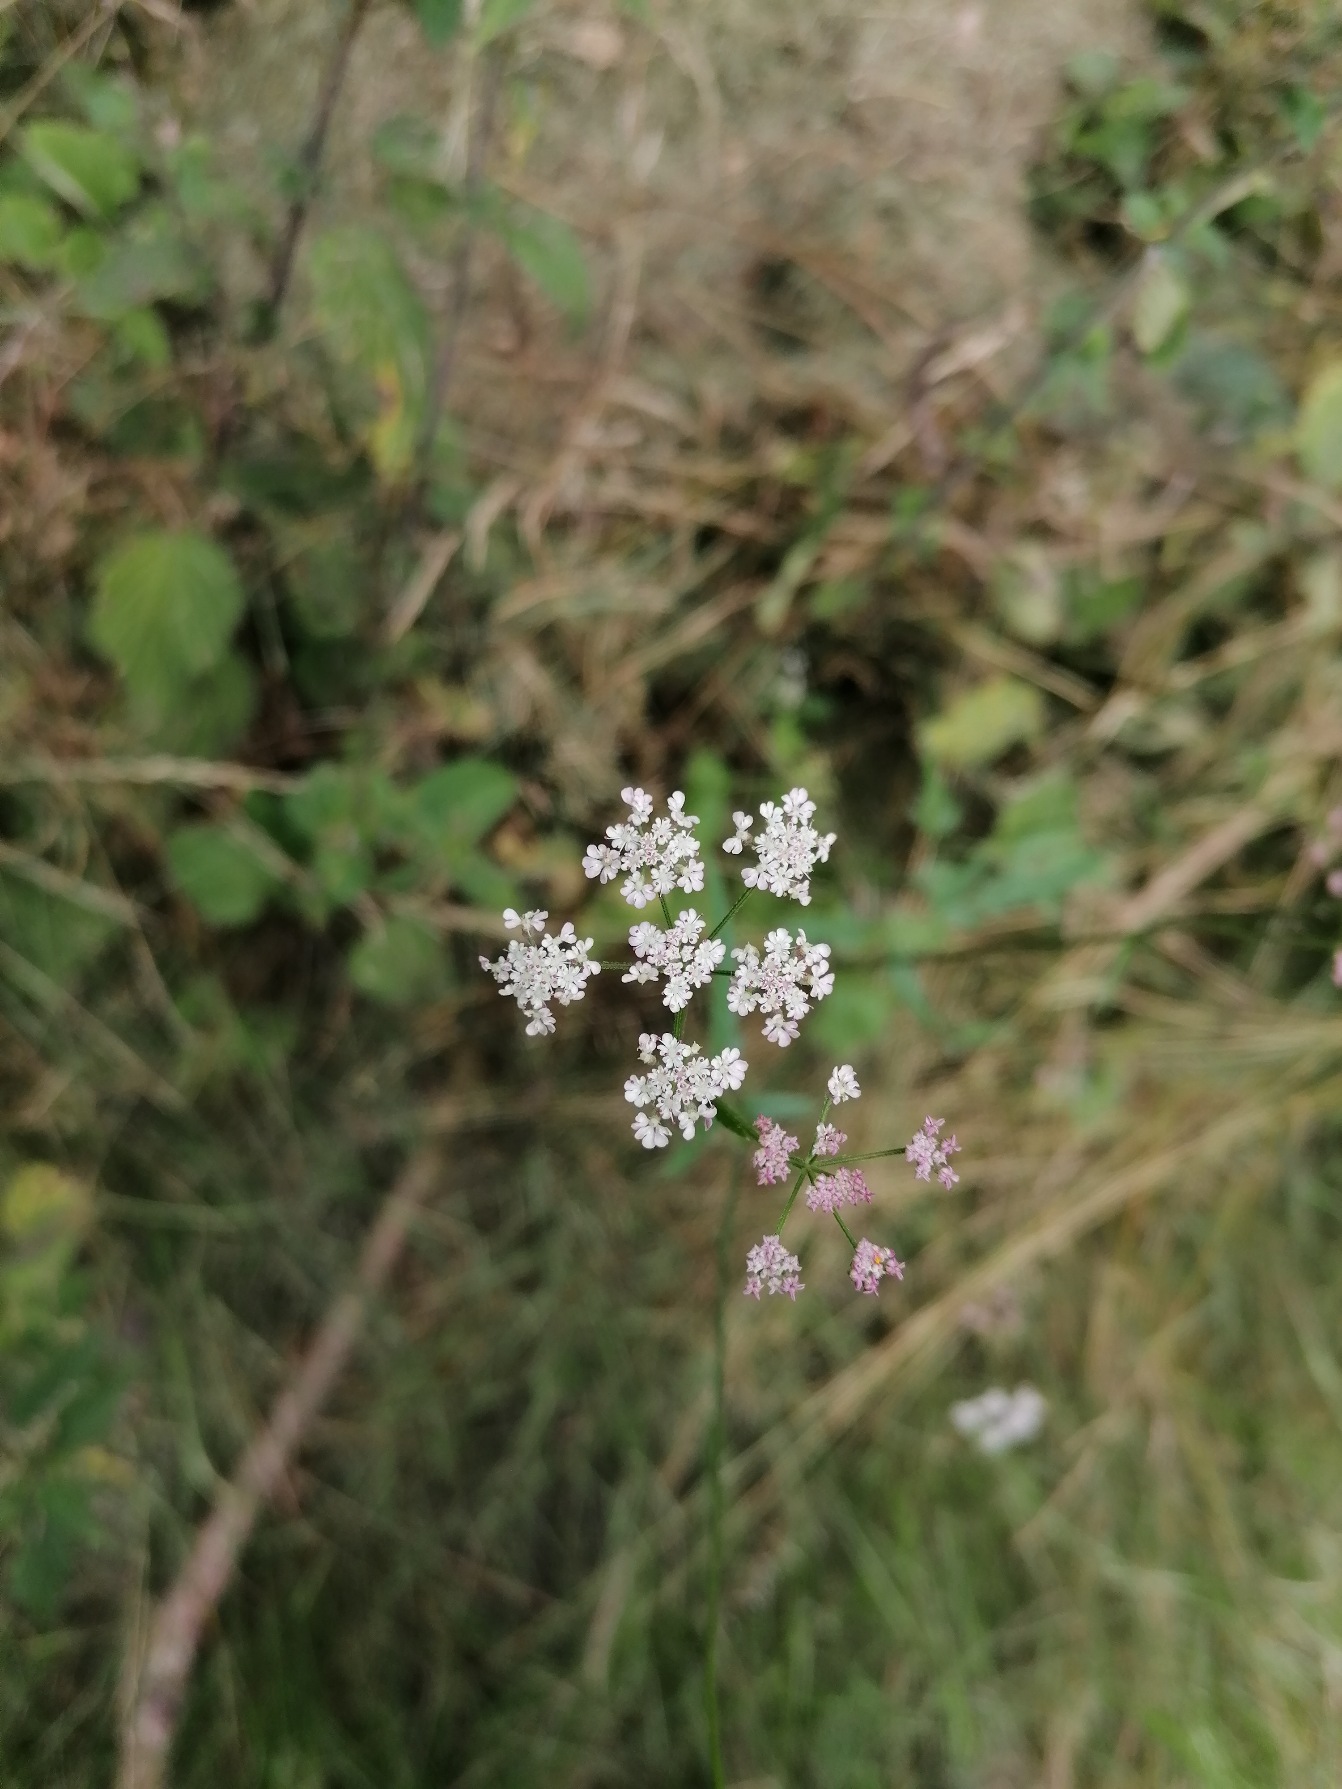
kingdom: Plantae
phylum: Tracheophyta
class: Magnoliopsida
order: Apiales
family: Apiaceae
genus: Torilis
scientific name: Torilis japonica
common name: Hvas randfrø
